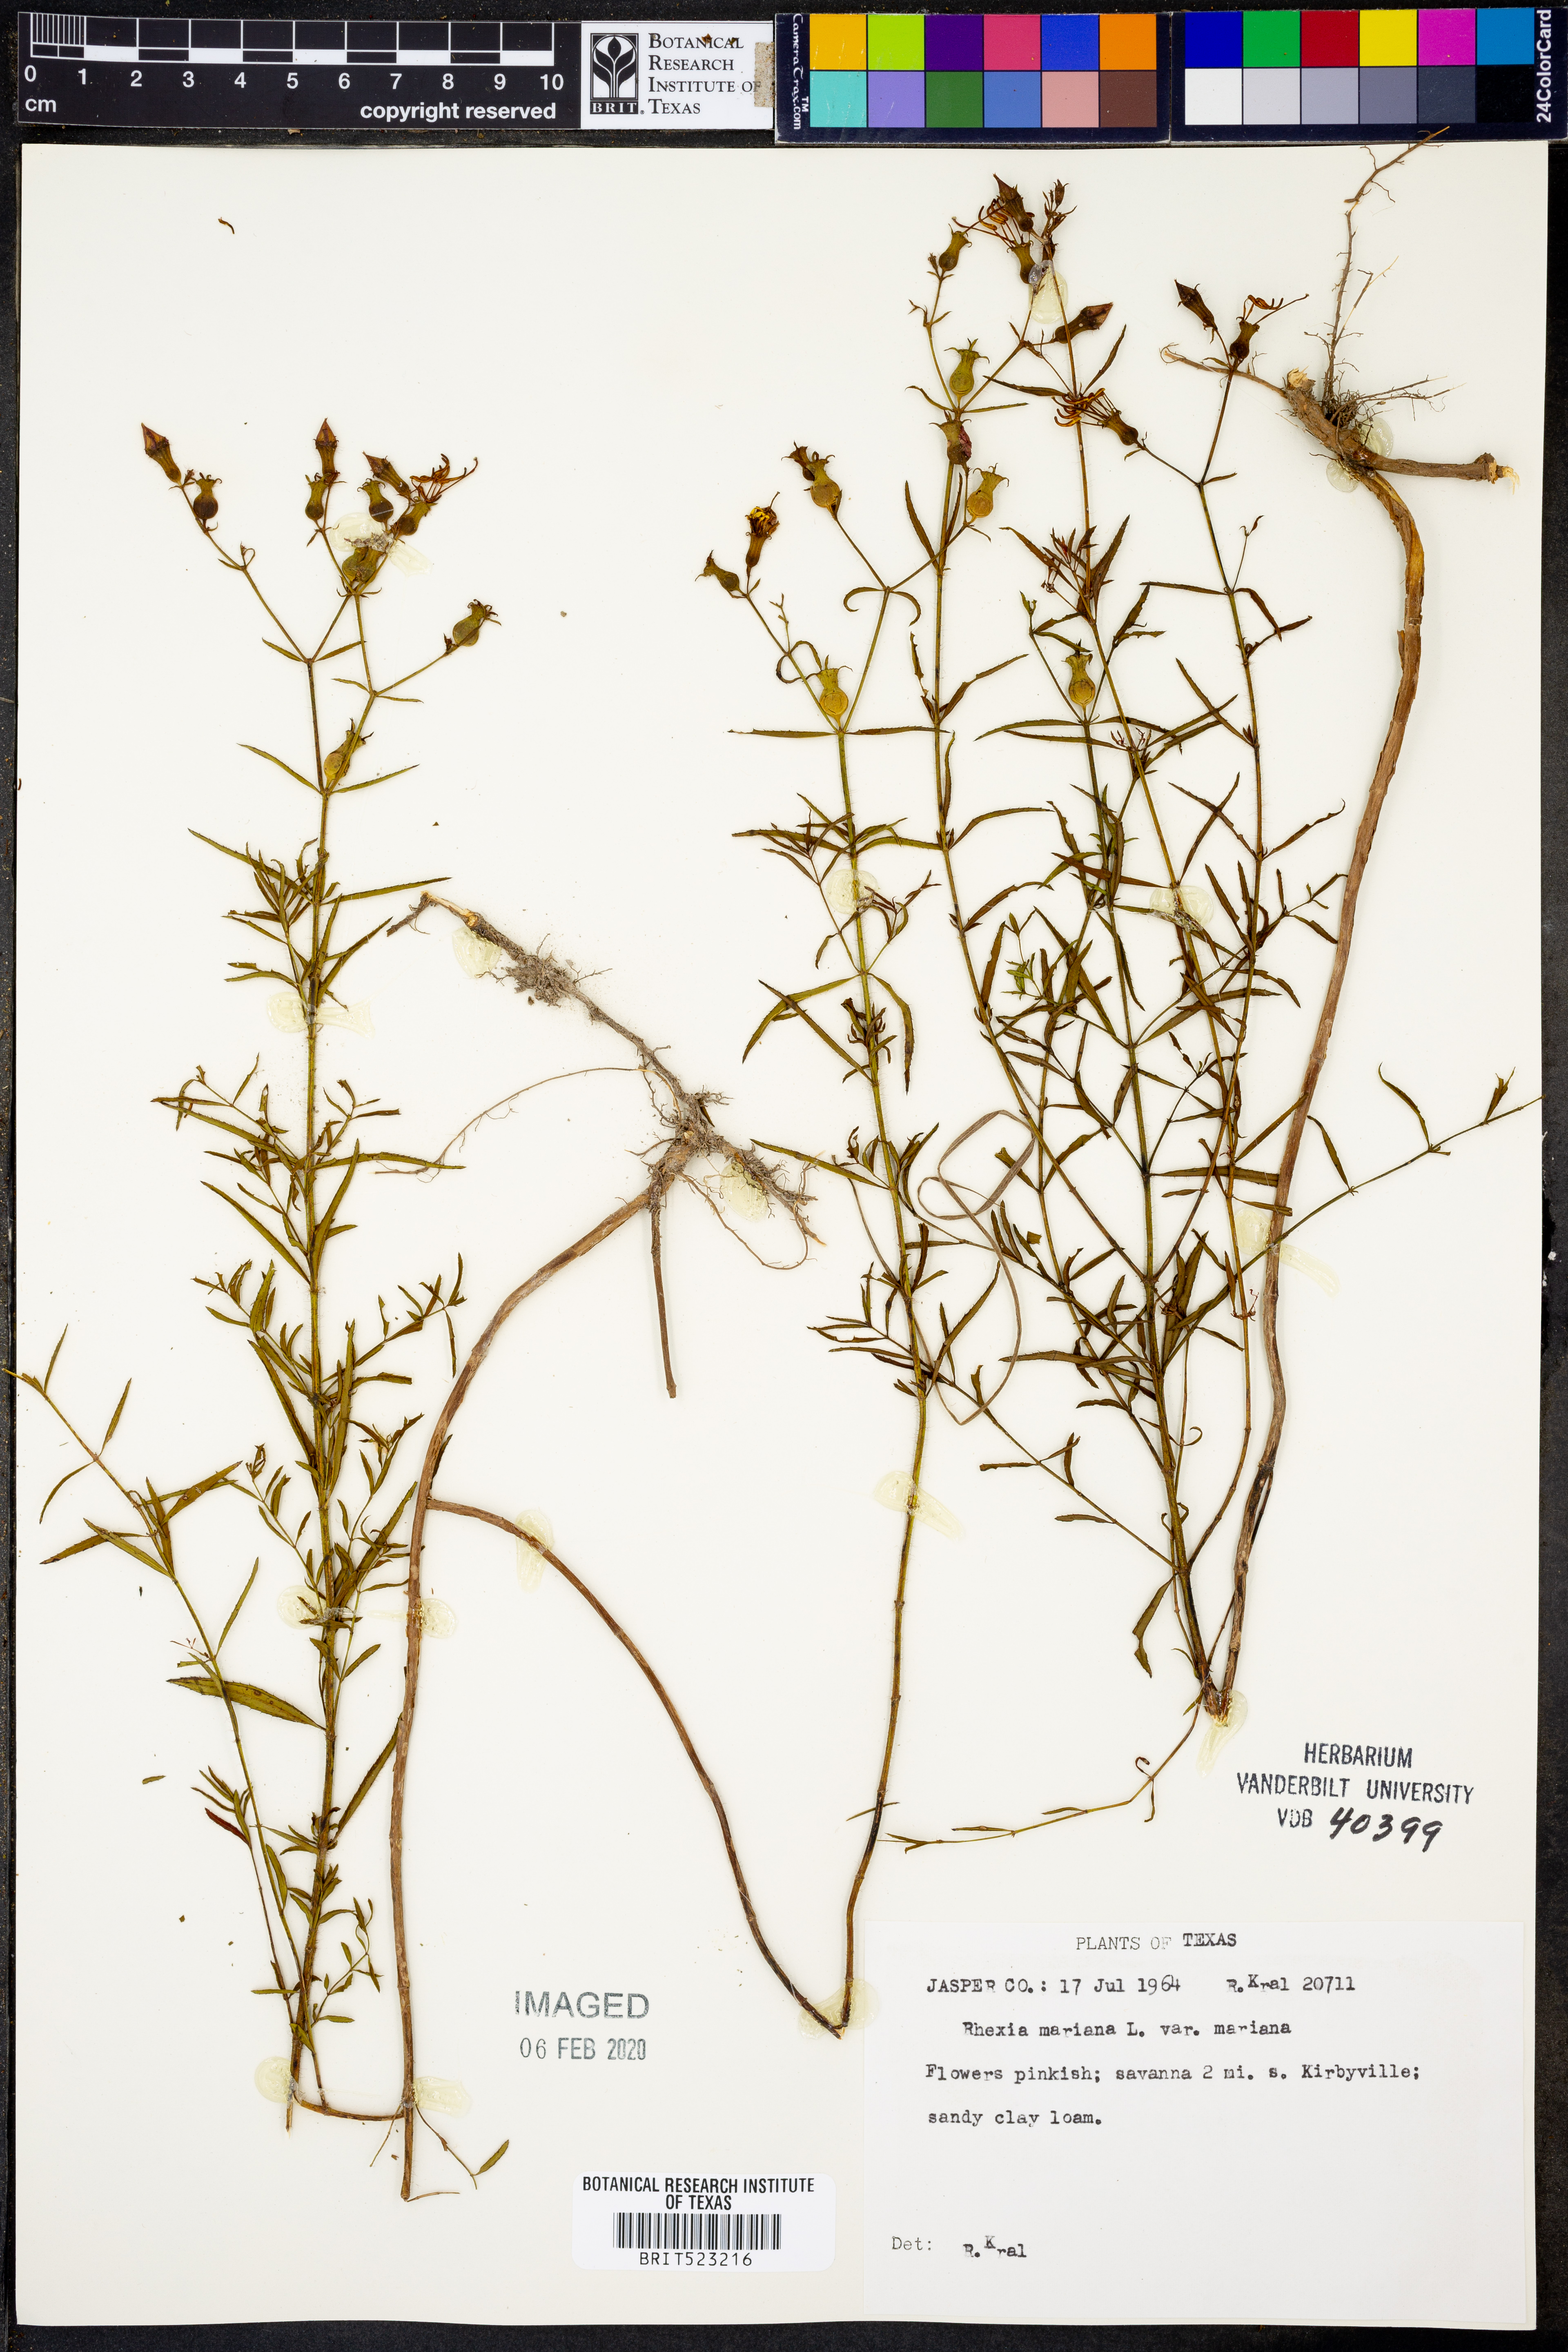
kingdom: Plantae
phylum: Tracheophyta
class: Magnoliopsida
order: Myrtales
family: Melastomataceae
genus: Rhexia
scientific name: Rhexia mariana
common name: Dull meadow-pitcher
